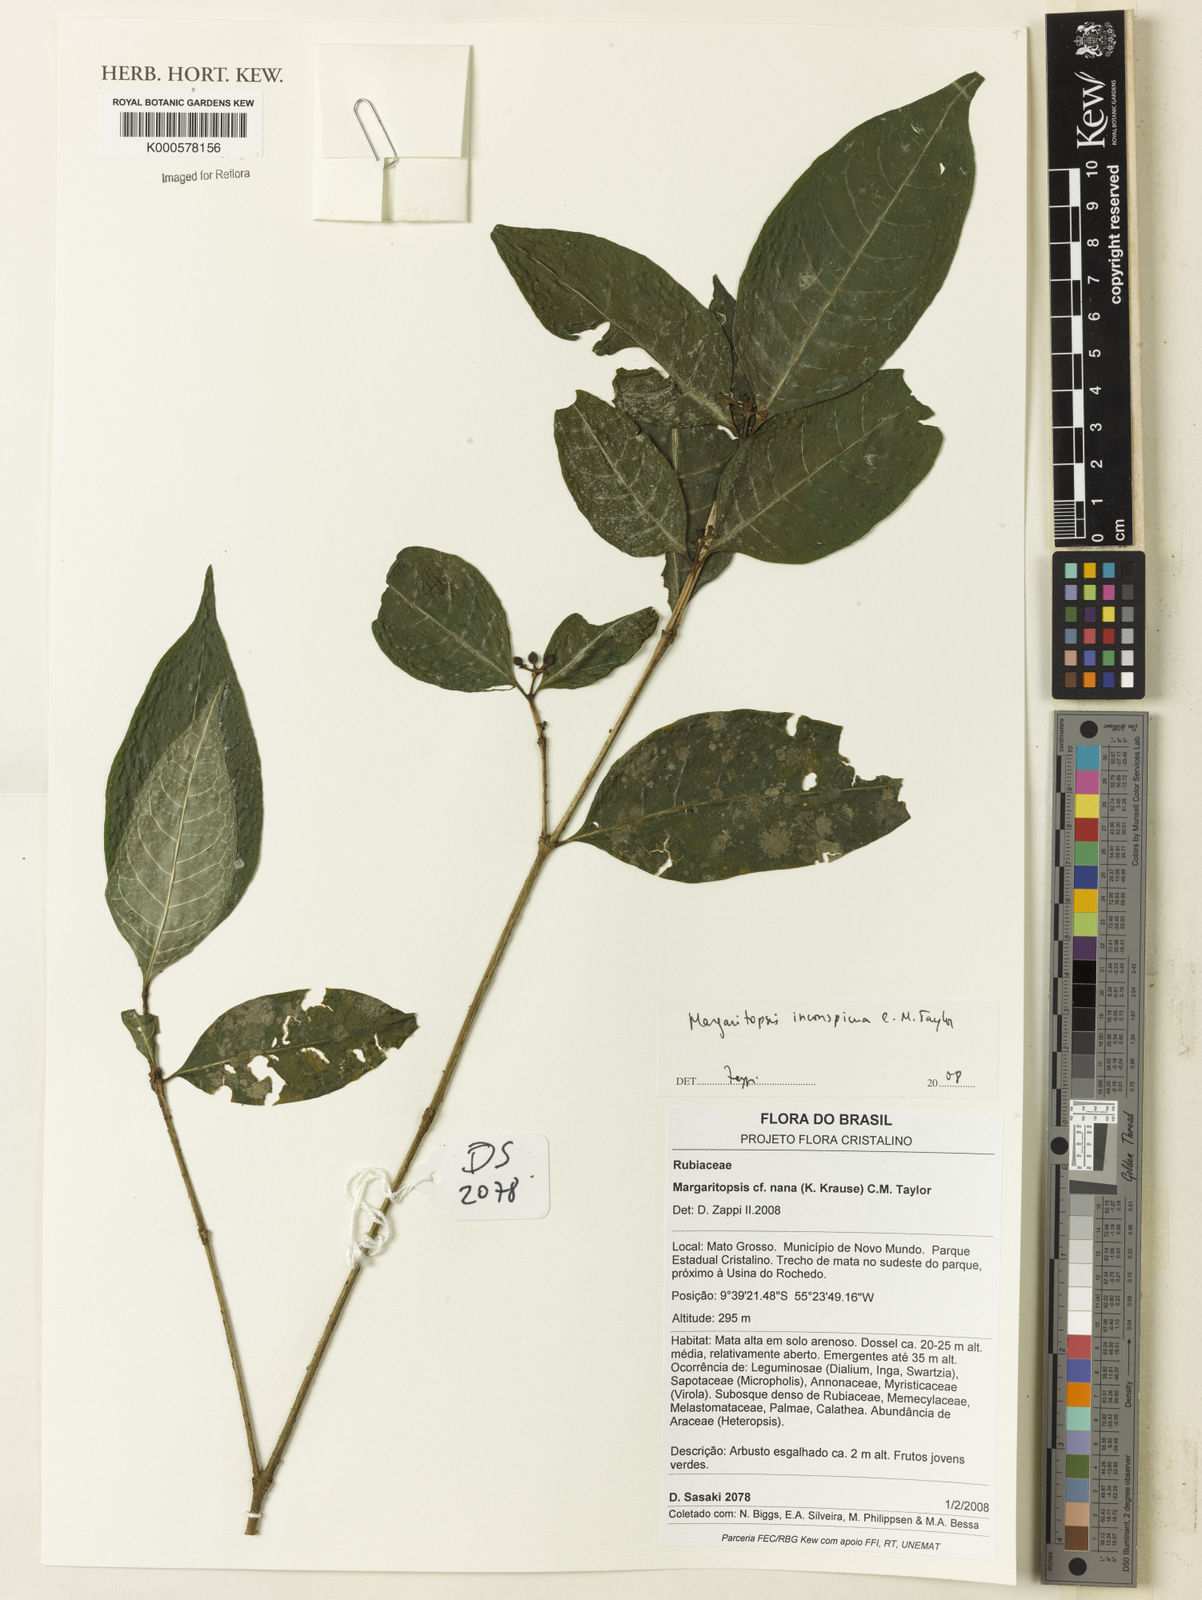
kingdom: Plantae
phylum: Tracheophyta
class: Magnoliopsida
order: Gentianales
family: Rubiaceae
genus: Eumachia
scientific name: Eumachia inconspicua
